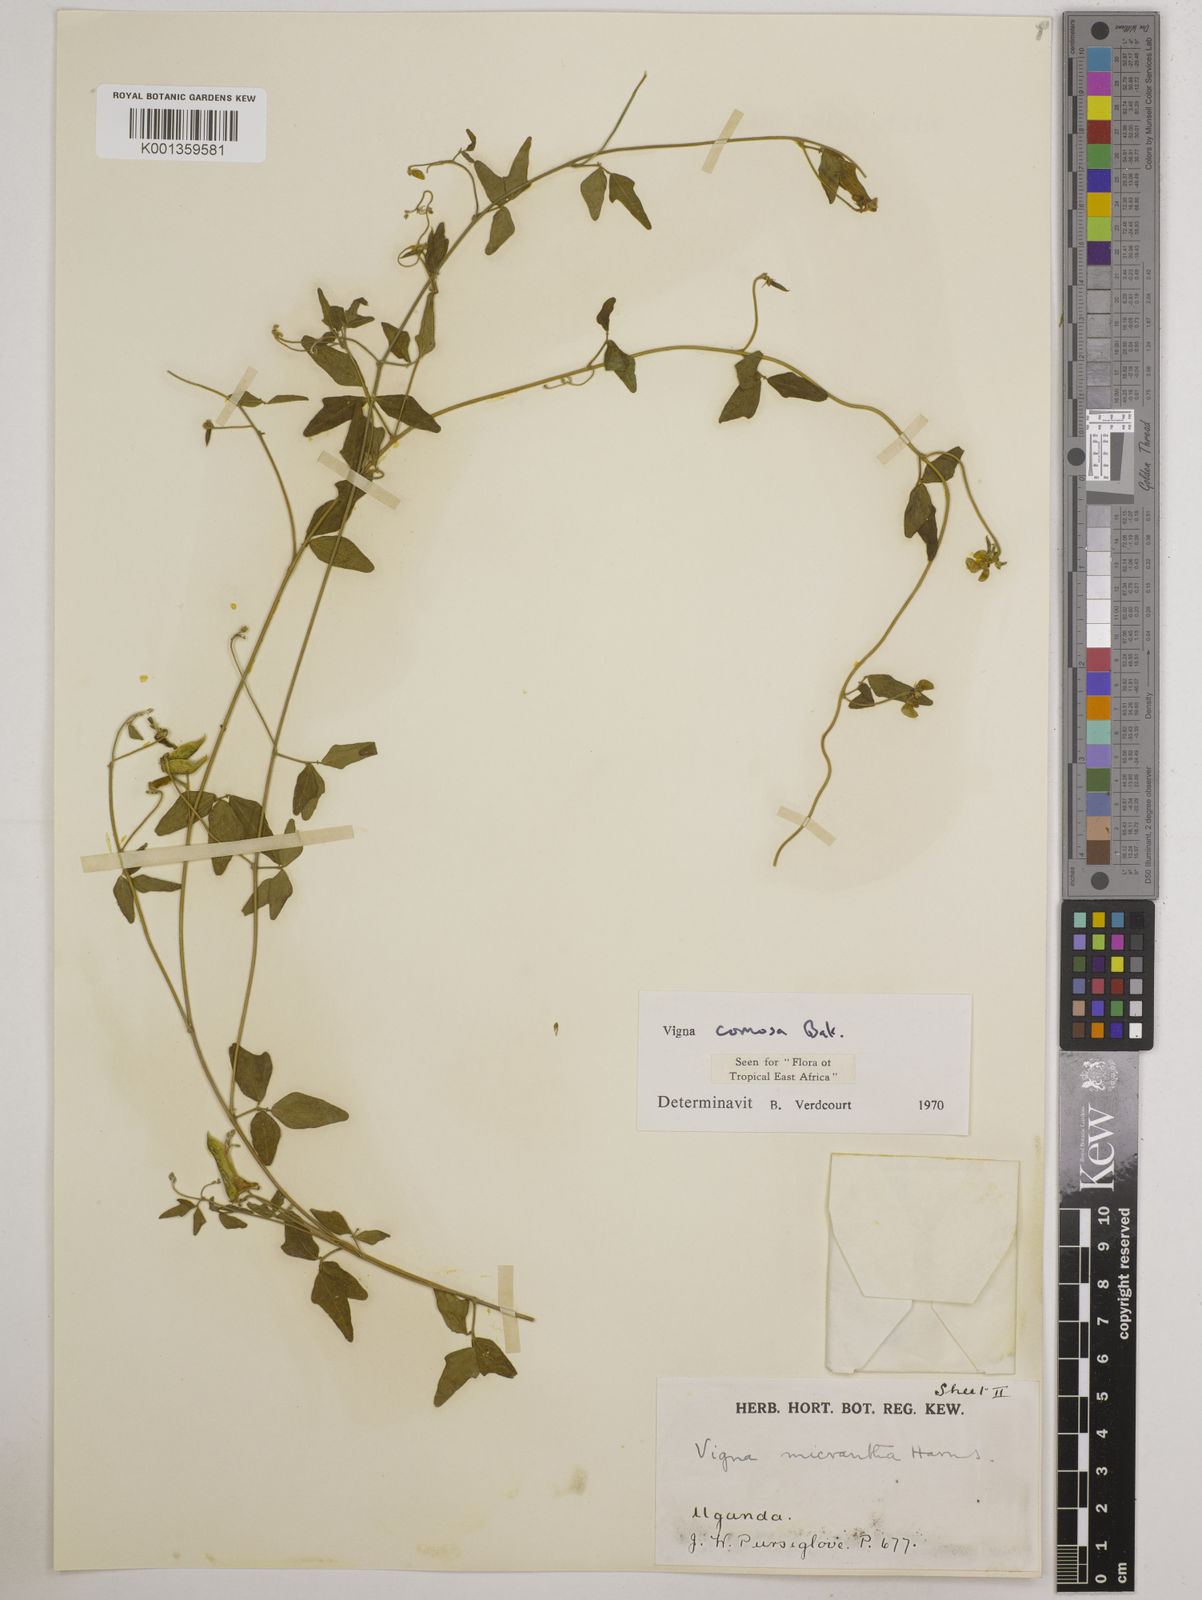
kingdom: Plantae
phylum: Tracheophyta
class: Magnoliopsida
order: Fabales
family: Fabaceae
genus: Vigna
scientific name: Vigna comosa
